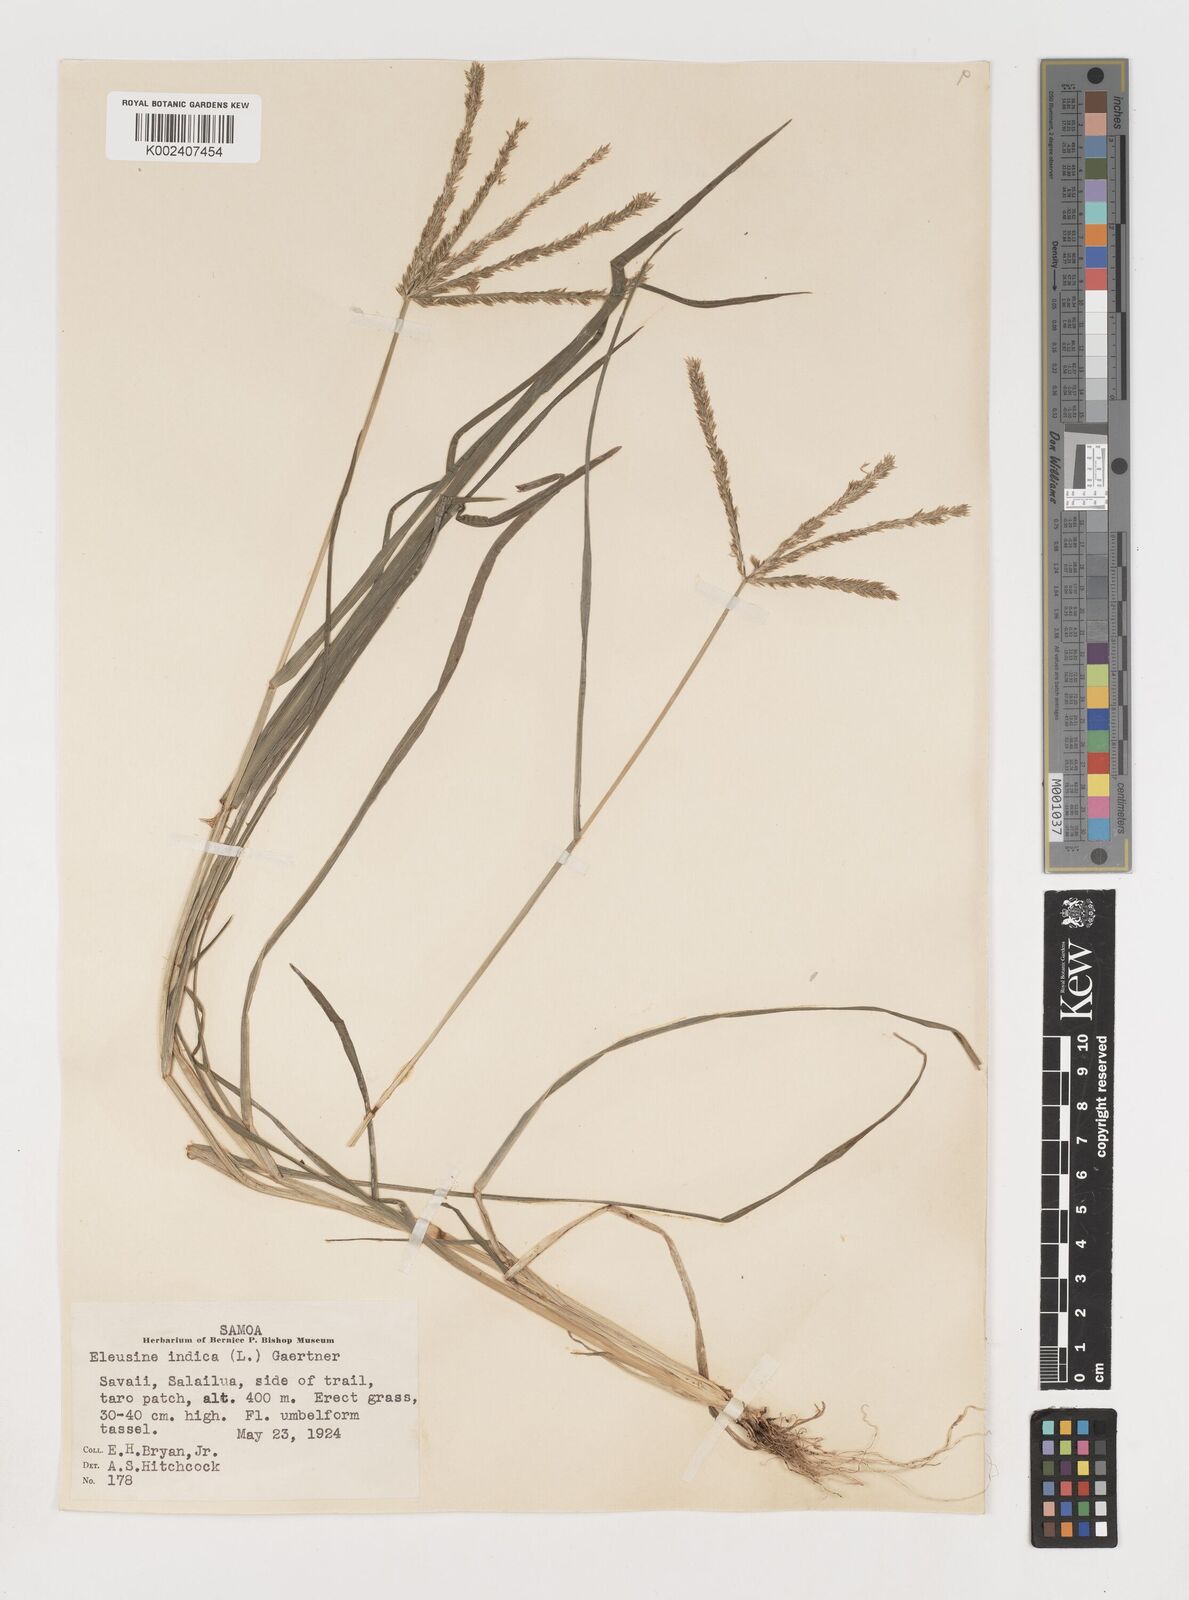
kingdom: Plantae
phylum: Tracheophyta
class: Liliopsida
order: Poales
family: Poaceae
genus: Eleusine
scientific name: Eleusine indica
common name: Yard-grass
